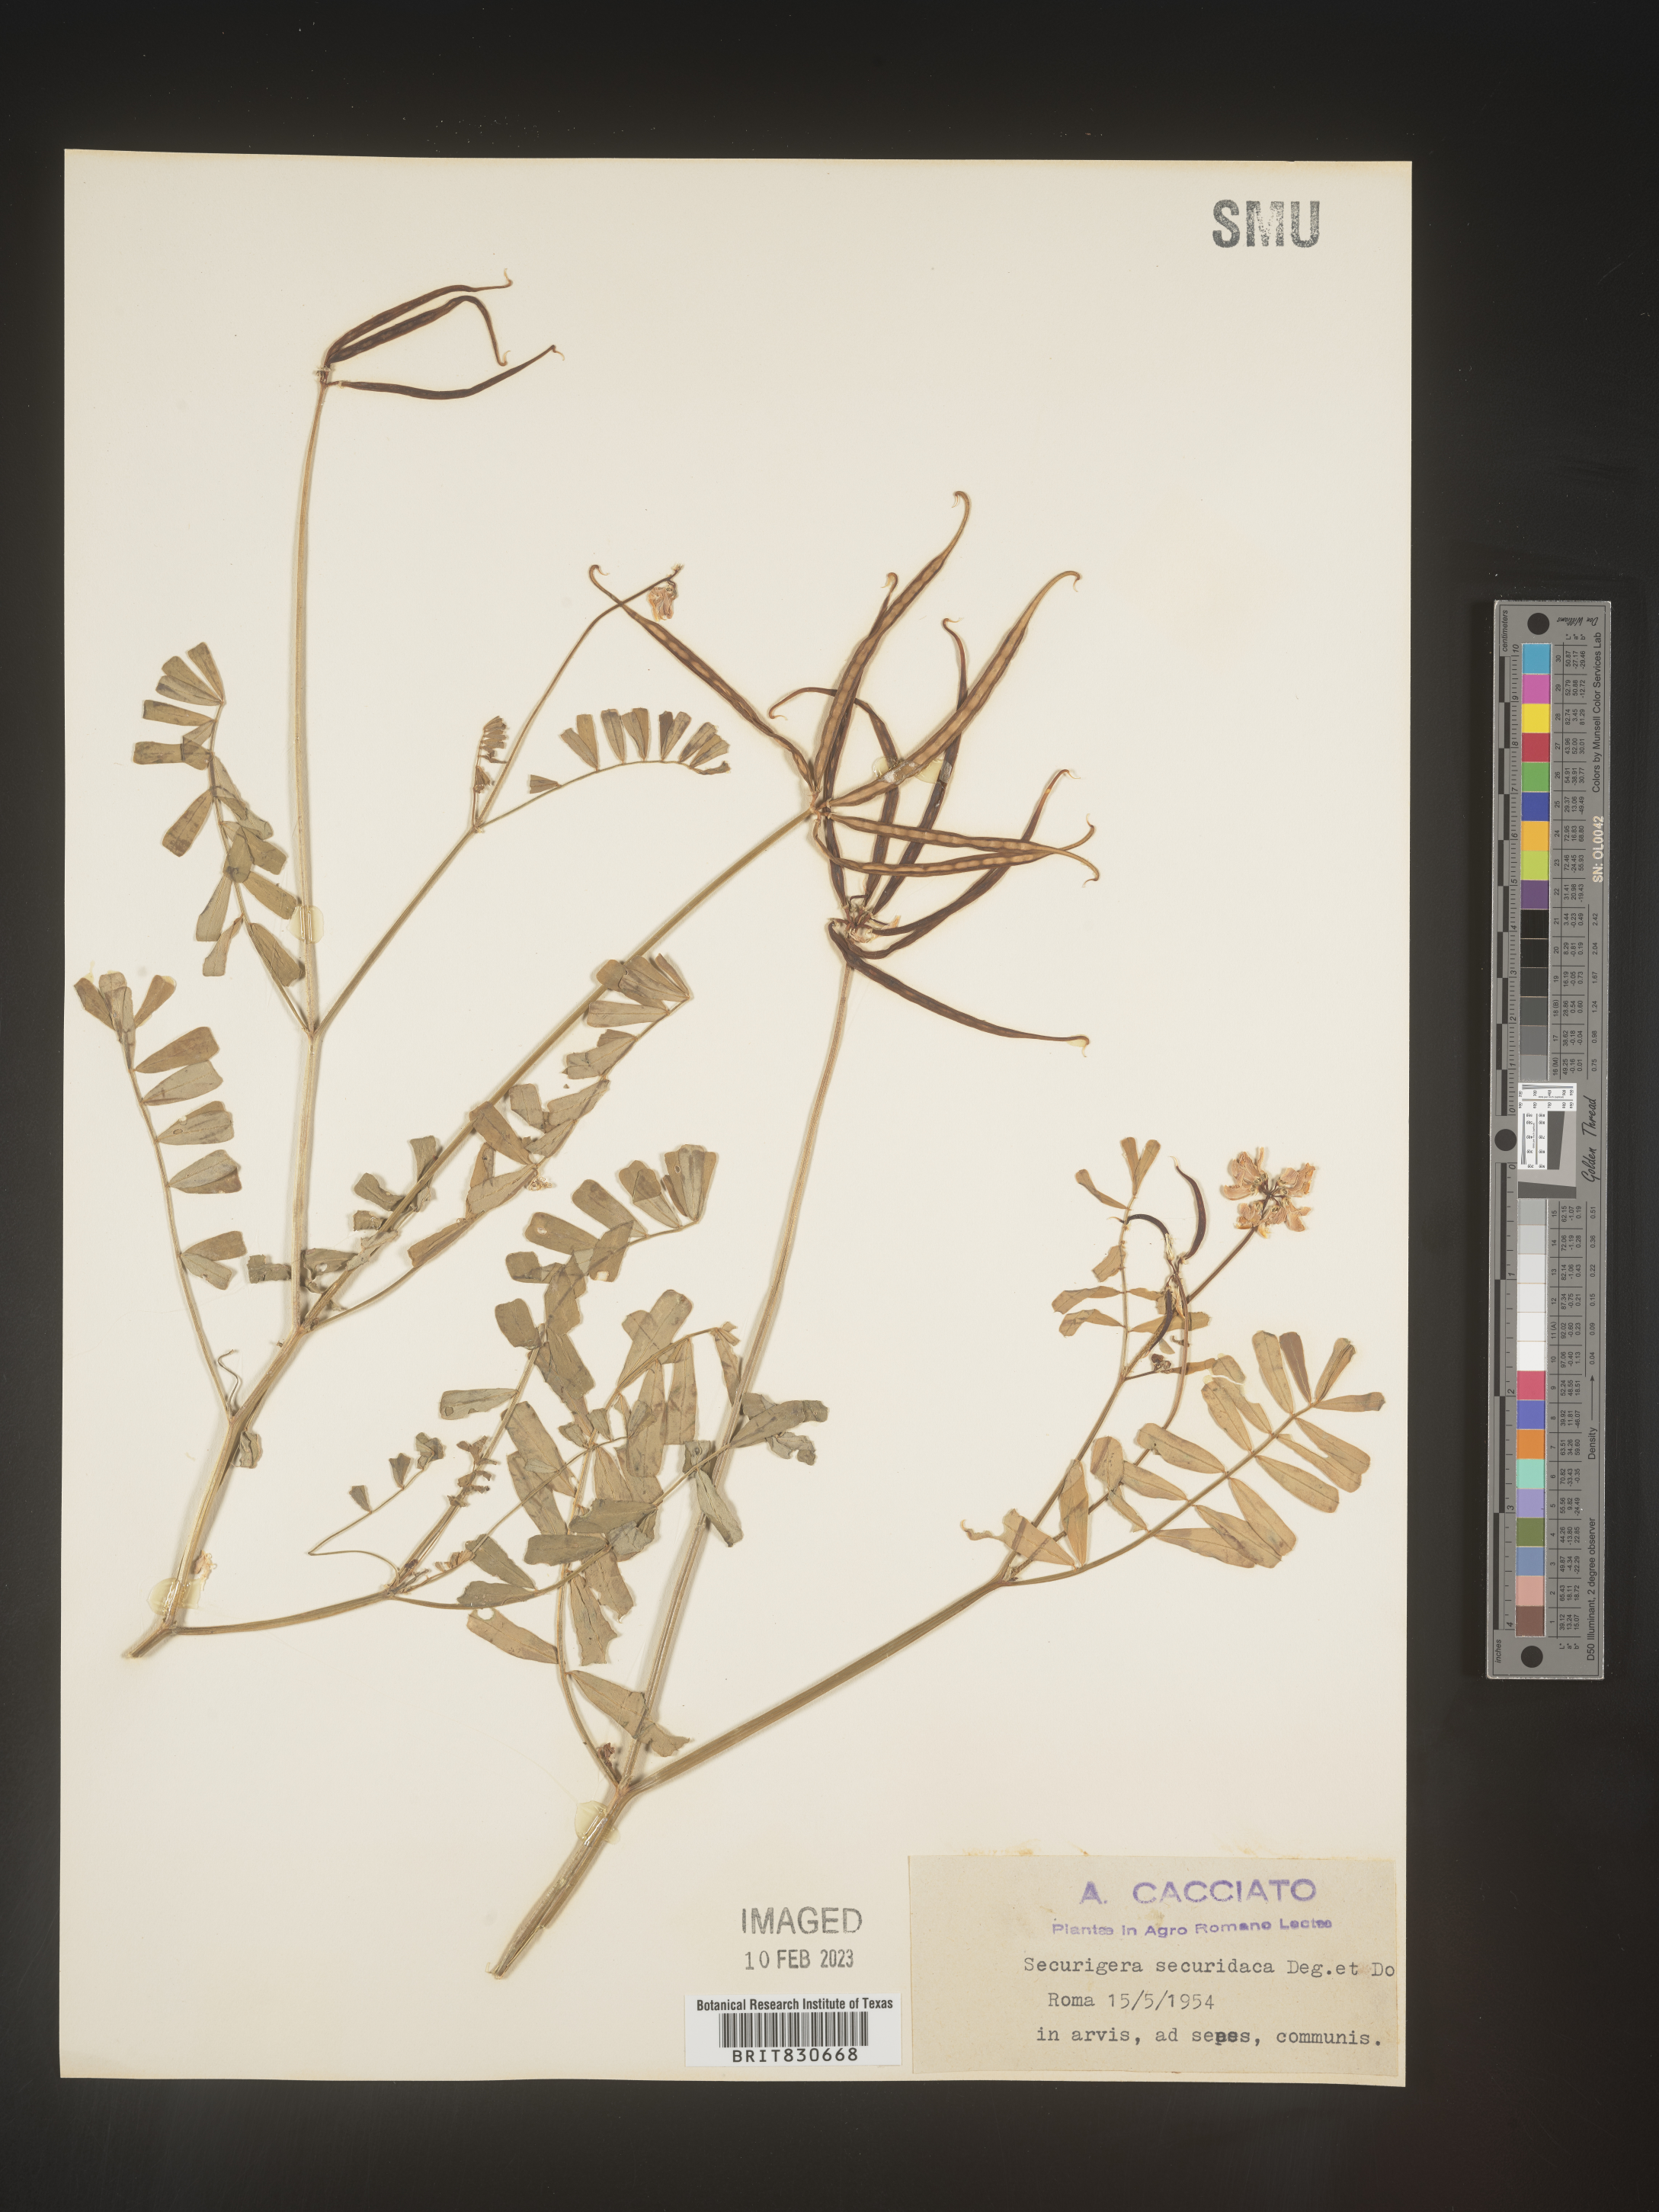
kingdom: Animalia
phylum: Arthropoda
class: Insecta
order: Orthoptera
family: Romaleidae
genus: Securigera
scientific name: Securigera
